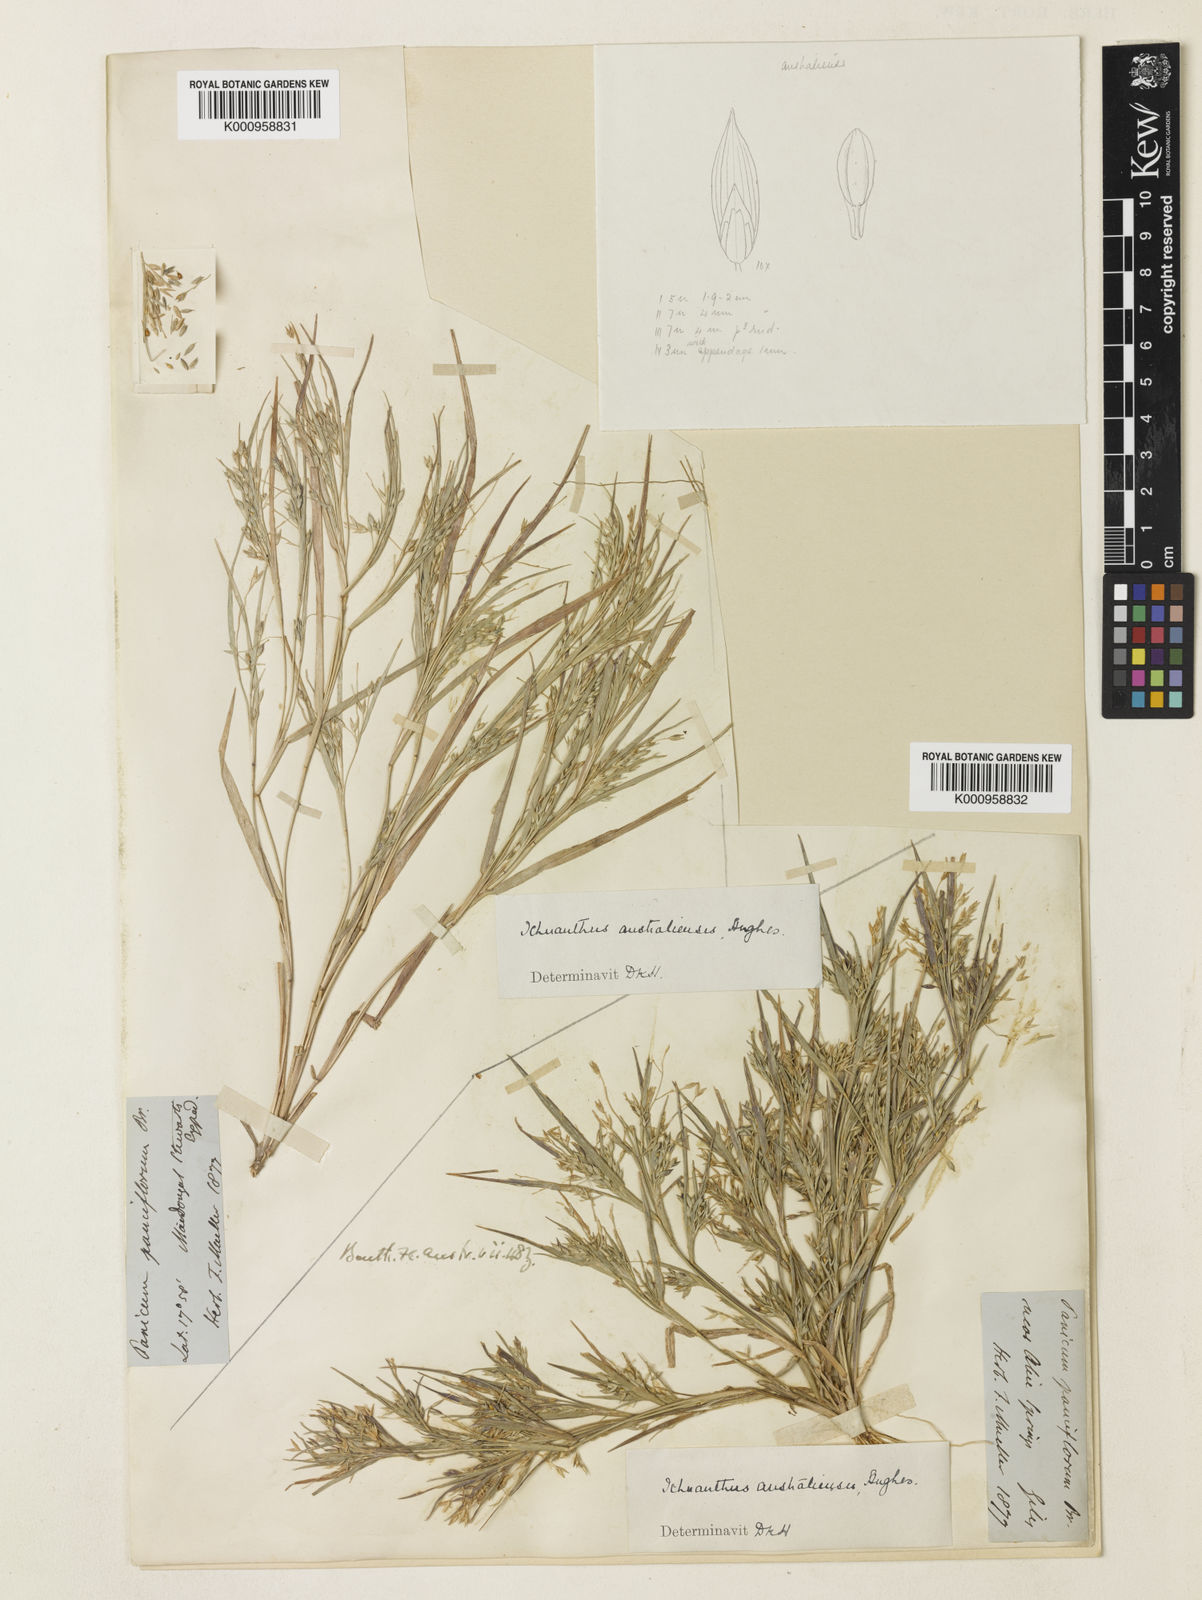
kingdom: Plantae
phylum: Tracheophyta
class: Liliopsida
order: Poales
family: Poaceae
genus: Panicum
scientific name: Panicum australiense
